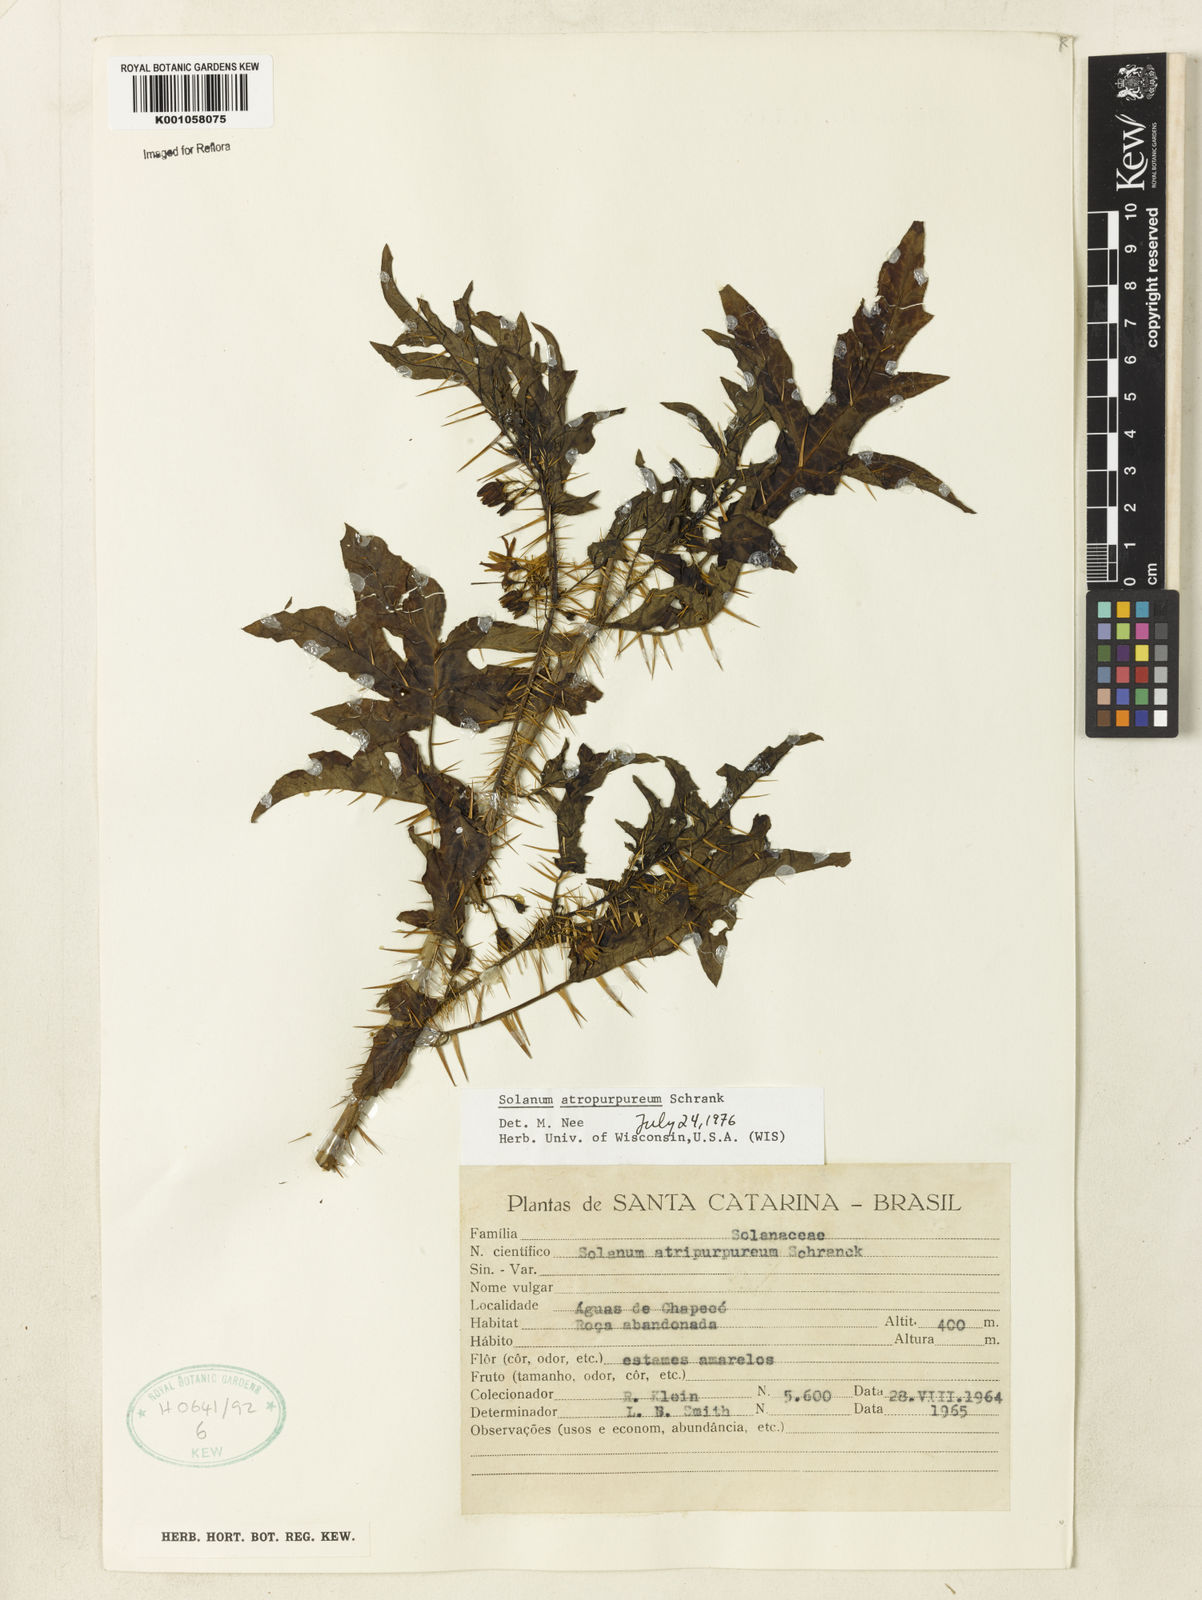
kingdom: Plantae
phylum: Tracheophyta
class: Magnoliopsida
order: Solanales
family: Solanaceae
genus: Solanum
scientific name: Solanum atropurpureum
